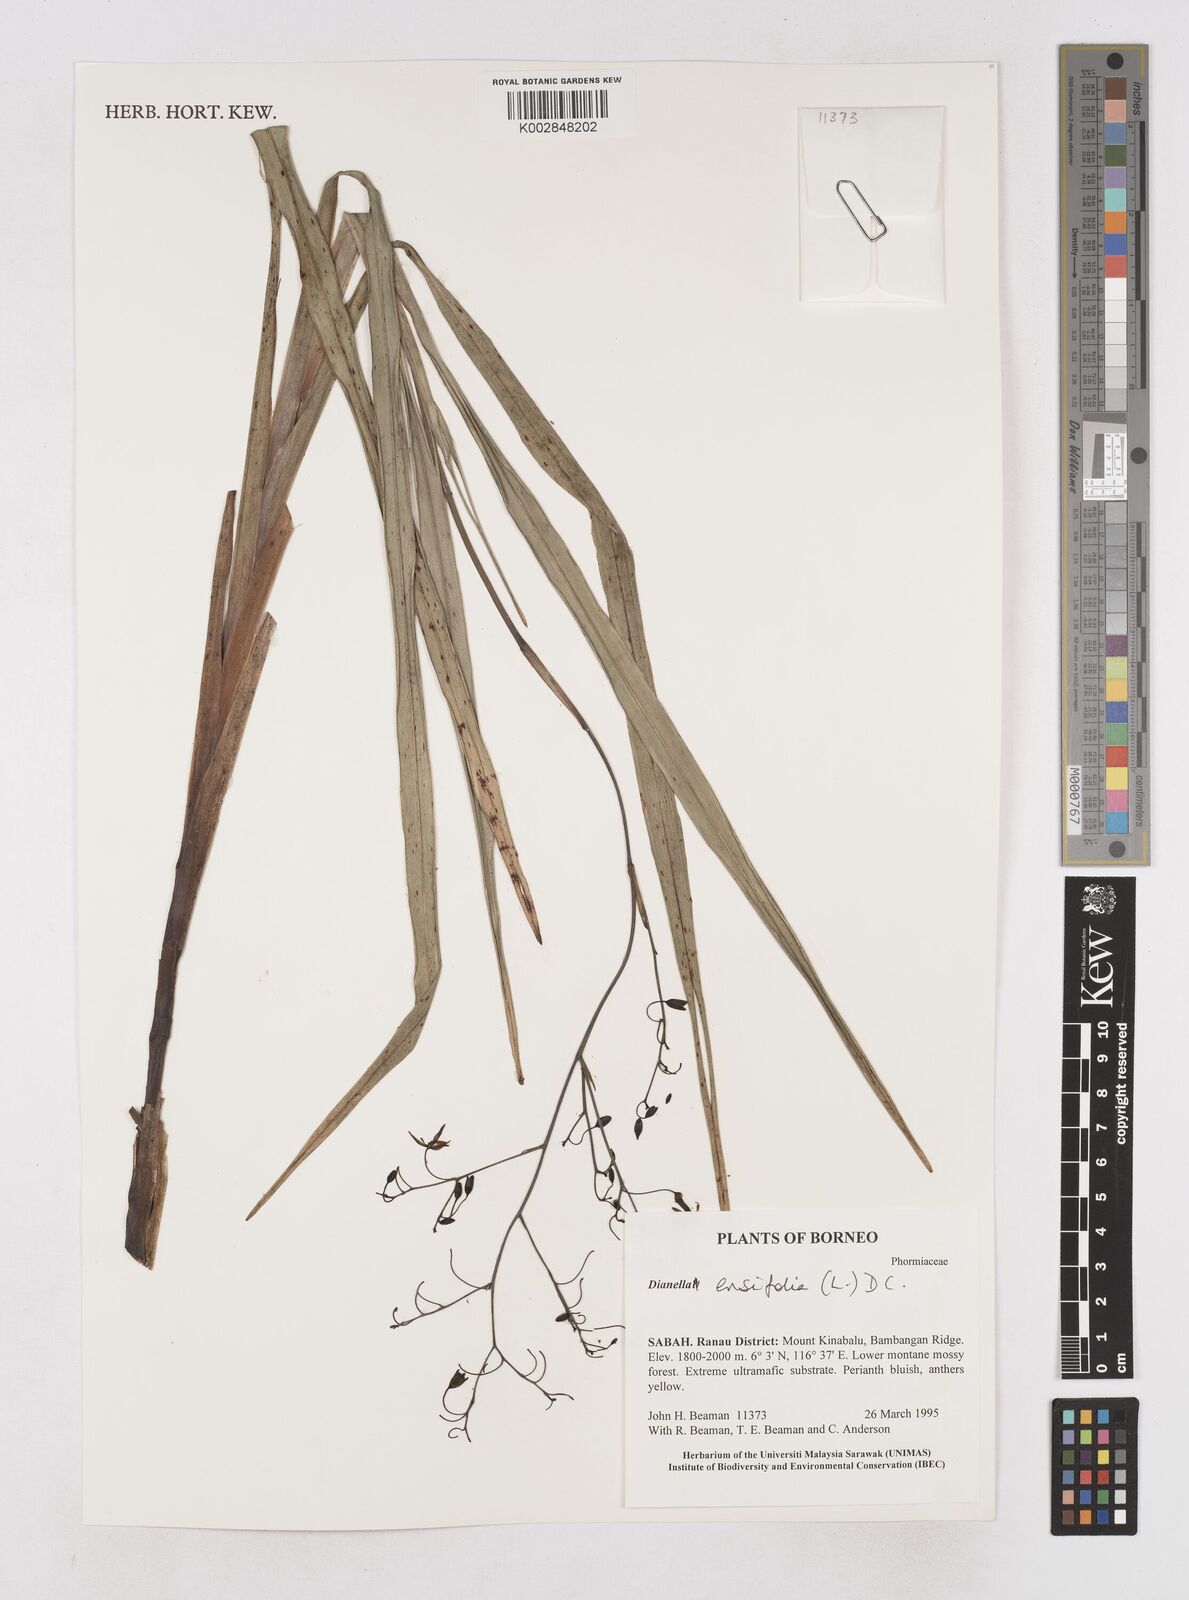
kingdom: Plantae
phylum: Tracheophyta
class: Liliopsida
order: Asparagales
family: Asphodelaceae
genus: Dianella
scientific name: Dianella ensifolia
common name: New zealand lilyplant
